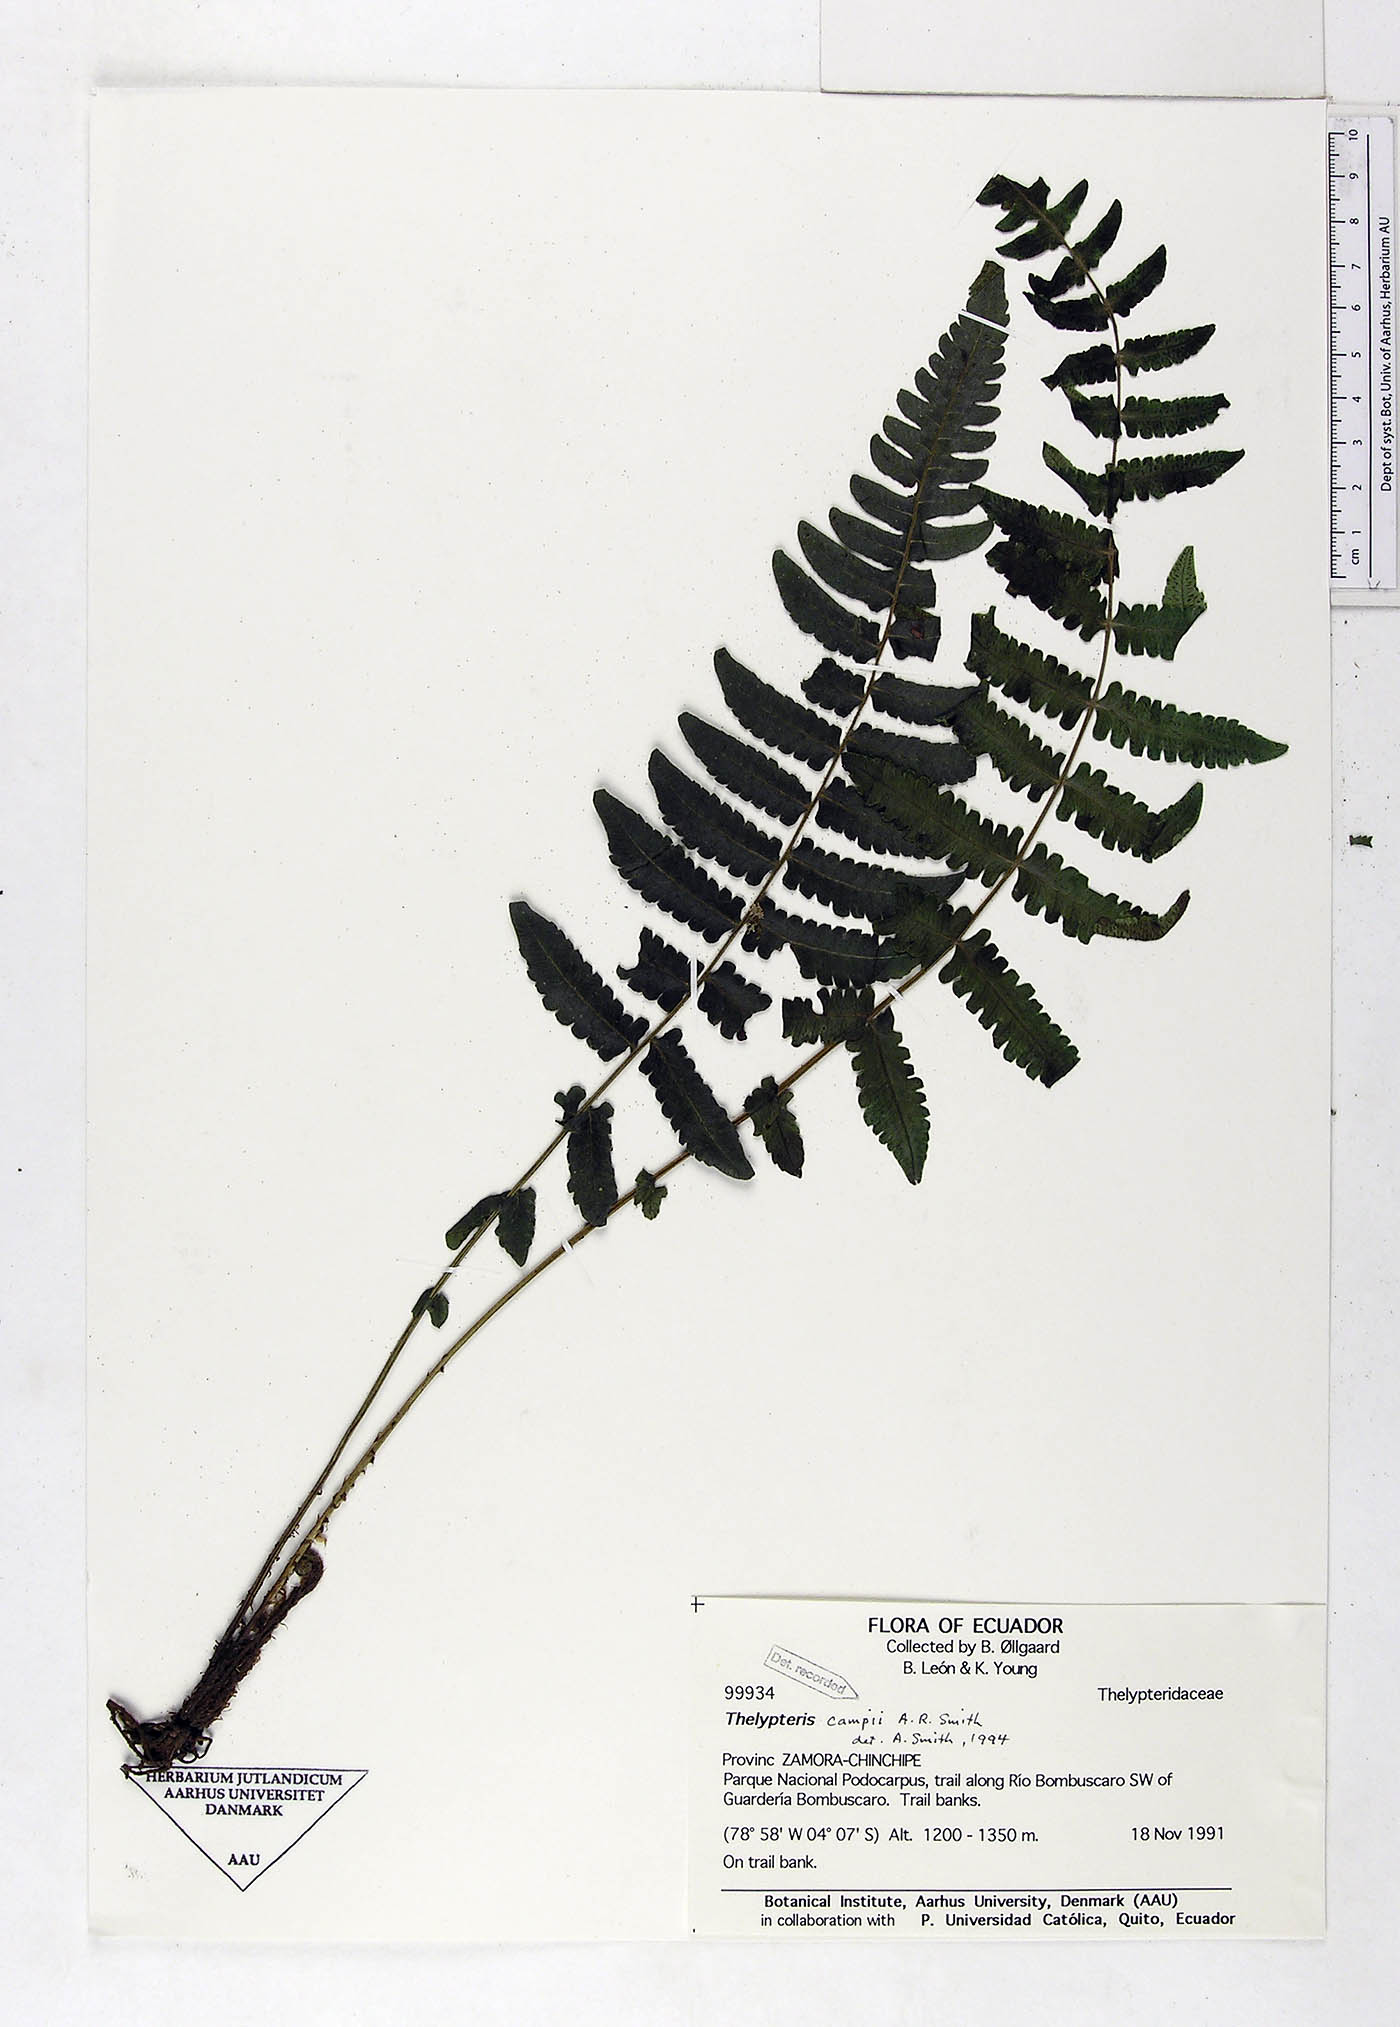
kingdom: Plantae
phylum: Tracheophyta
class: Polypodiopsida
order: Polypodiales
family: Thelypteridaceae
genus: Amauropelta
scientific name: Amauropelta campii
